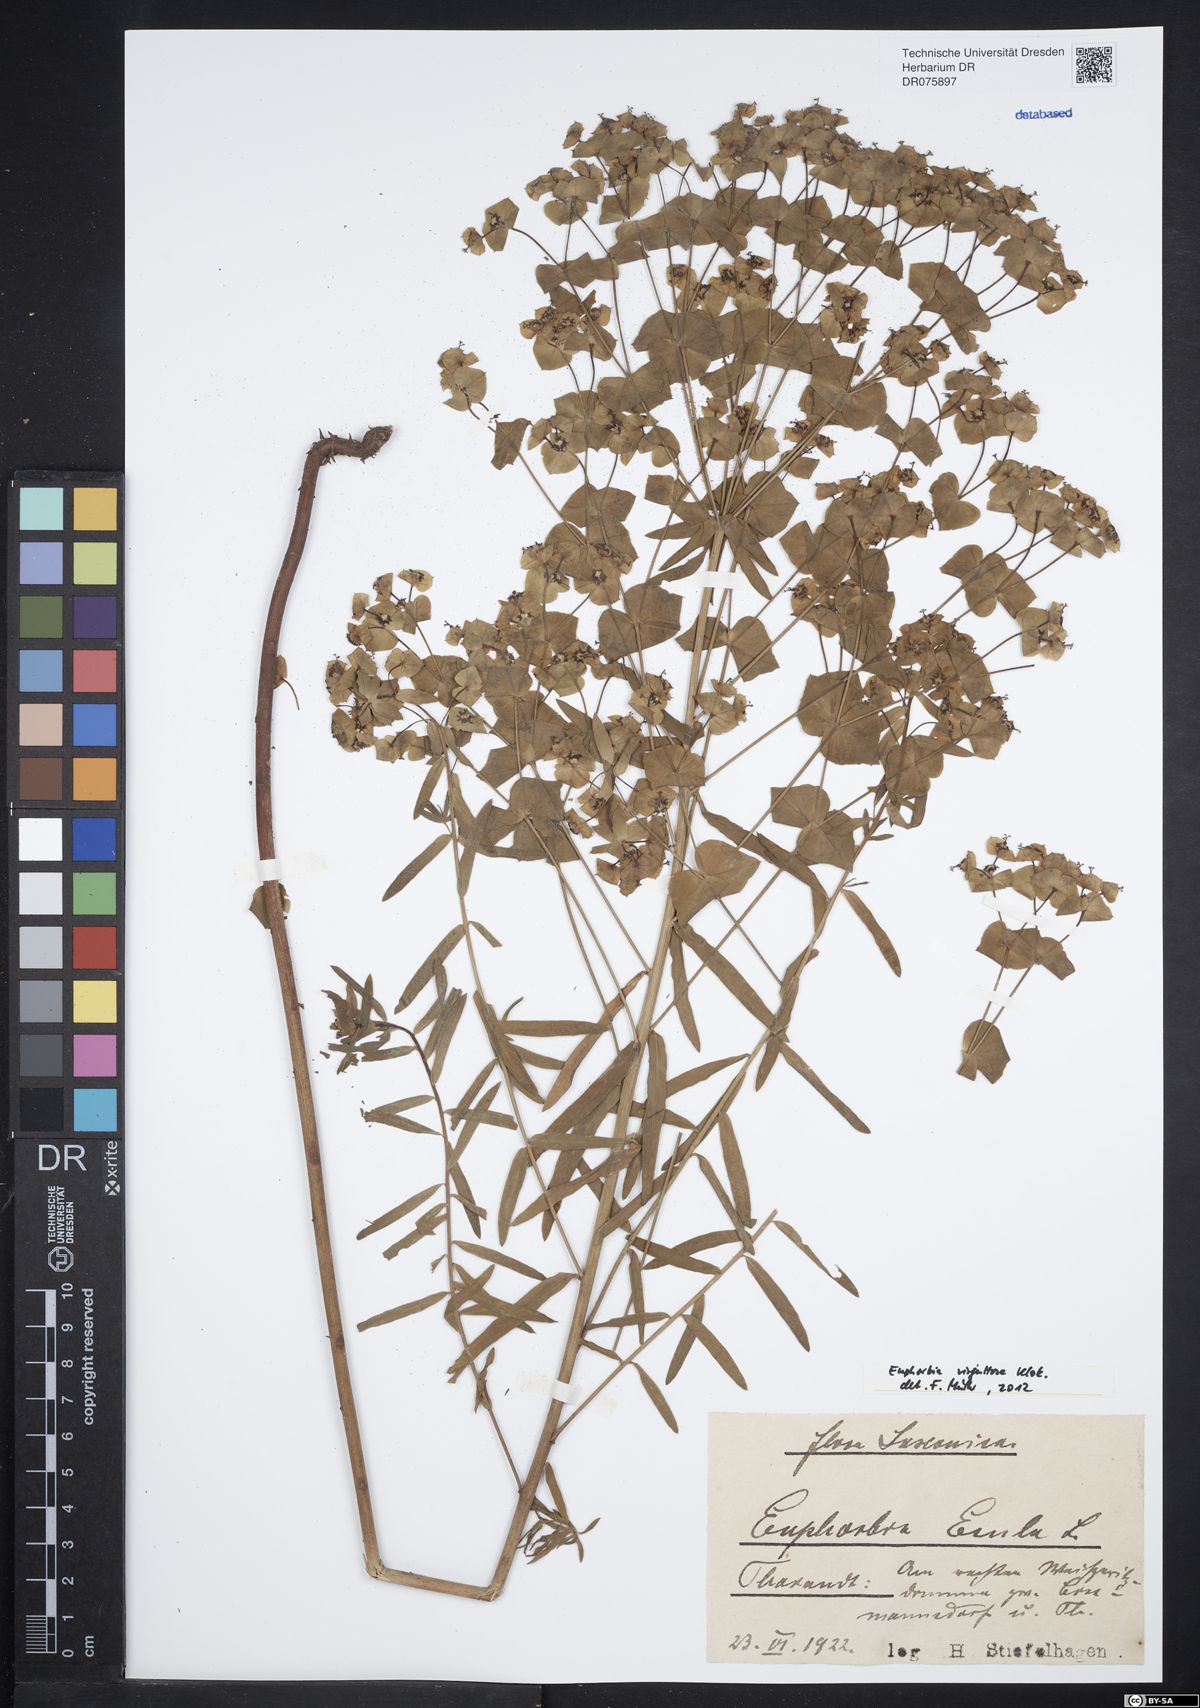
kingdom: Plantae
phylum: Tracheophyta
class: Magnoliopsida
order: Malpighiales
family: Euphorbiaceae
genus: Euphorbia
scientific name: Euphorbia saratoi
